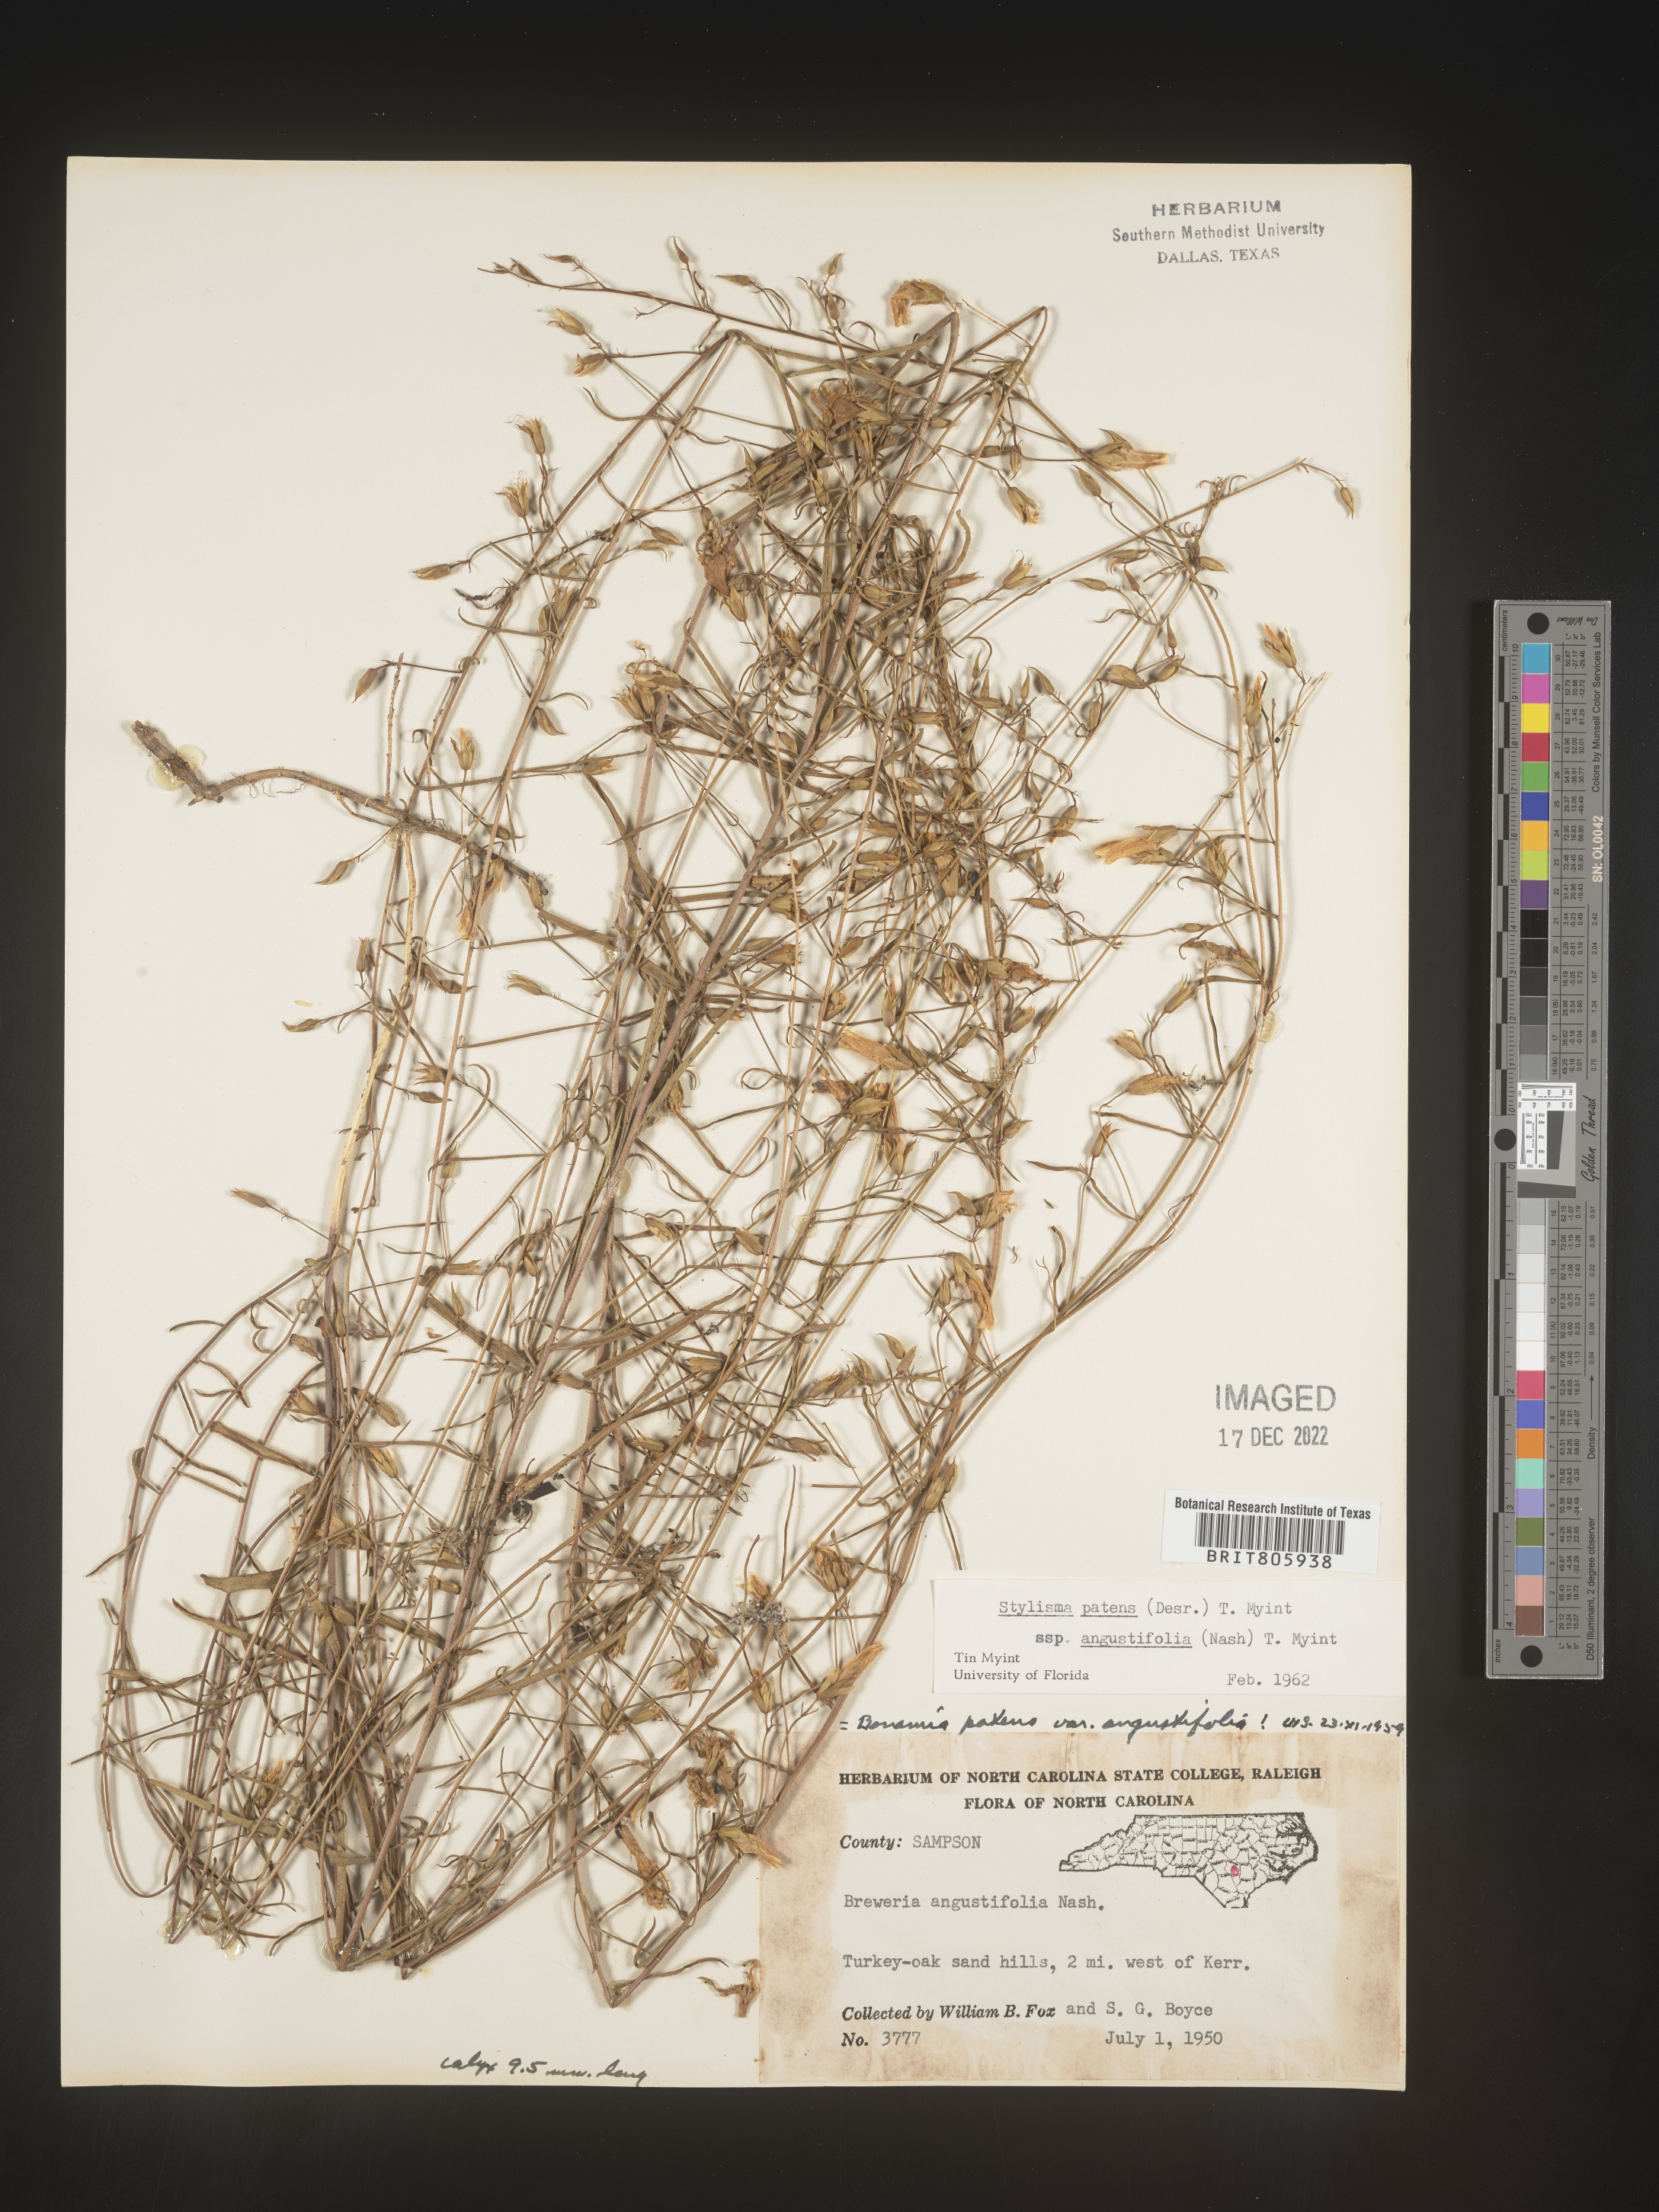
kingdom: Plantae
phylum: Tracheophyta
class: Magnoliopsida
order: Solanales
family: Convolvulaceae
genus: Stylisma
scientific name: Stylisma
